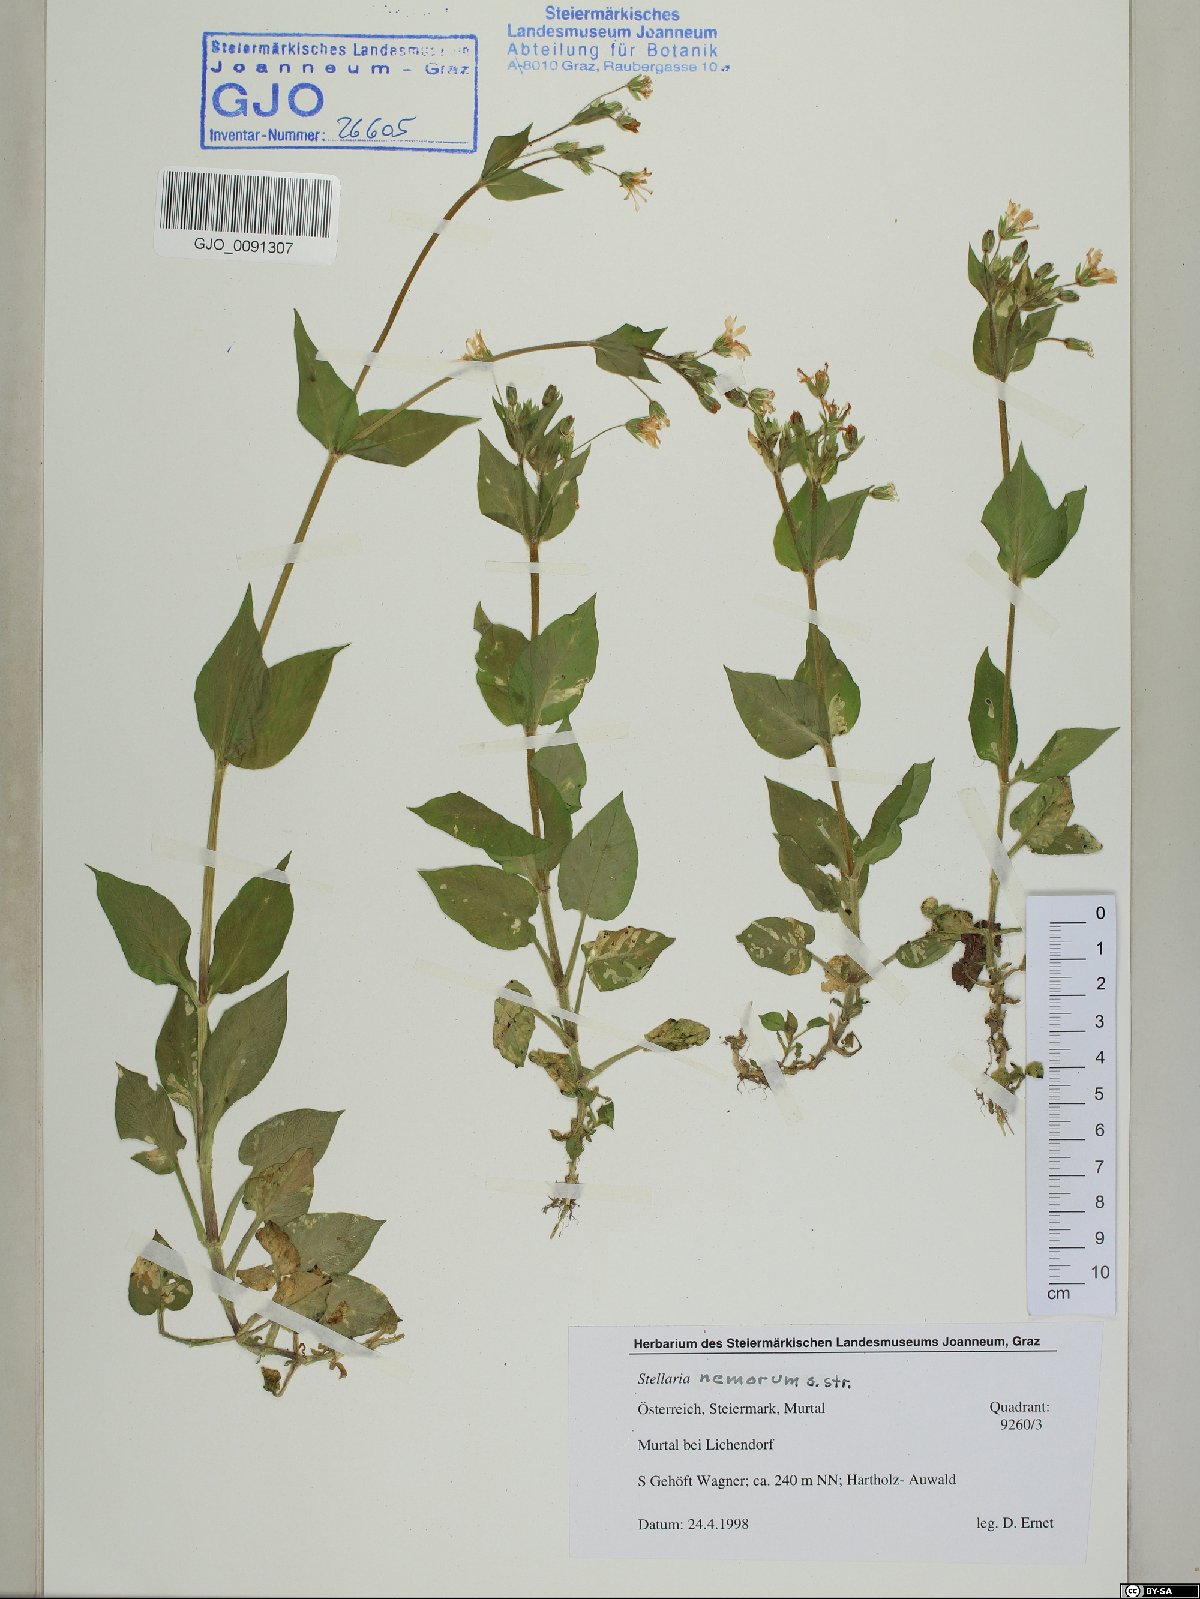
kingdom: Plantae
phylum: Tracheophyta
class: Magnoliopsida
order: Caryophyllales
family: Caryophyllaceae
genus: Stellaria
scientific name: Stellaria nemorum
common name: Wood stitchwort
